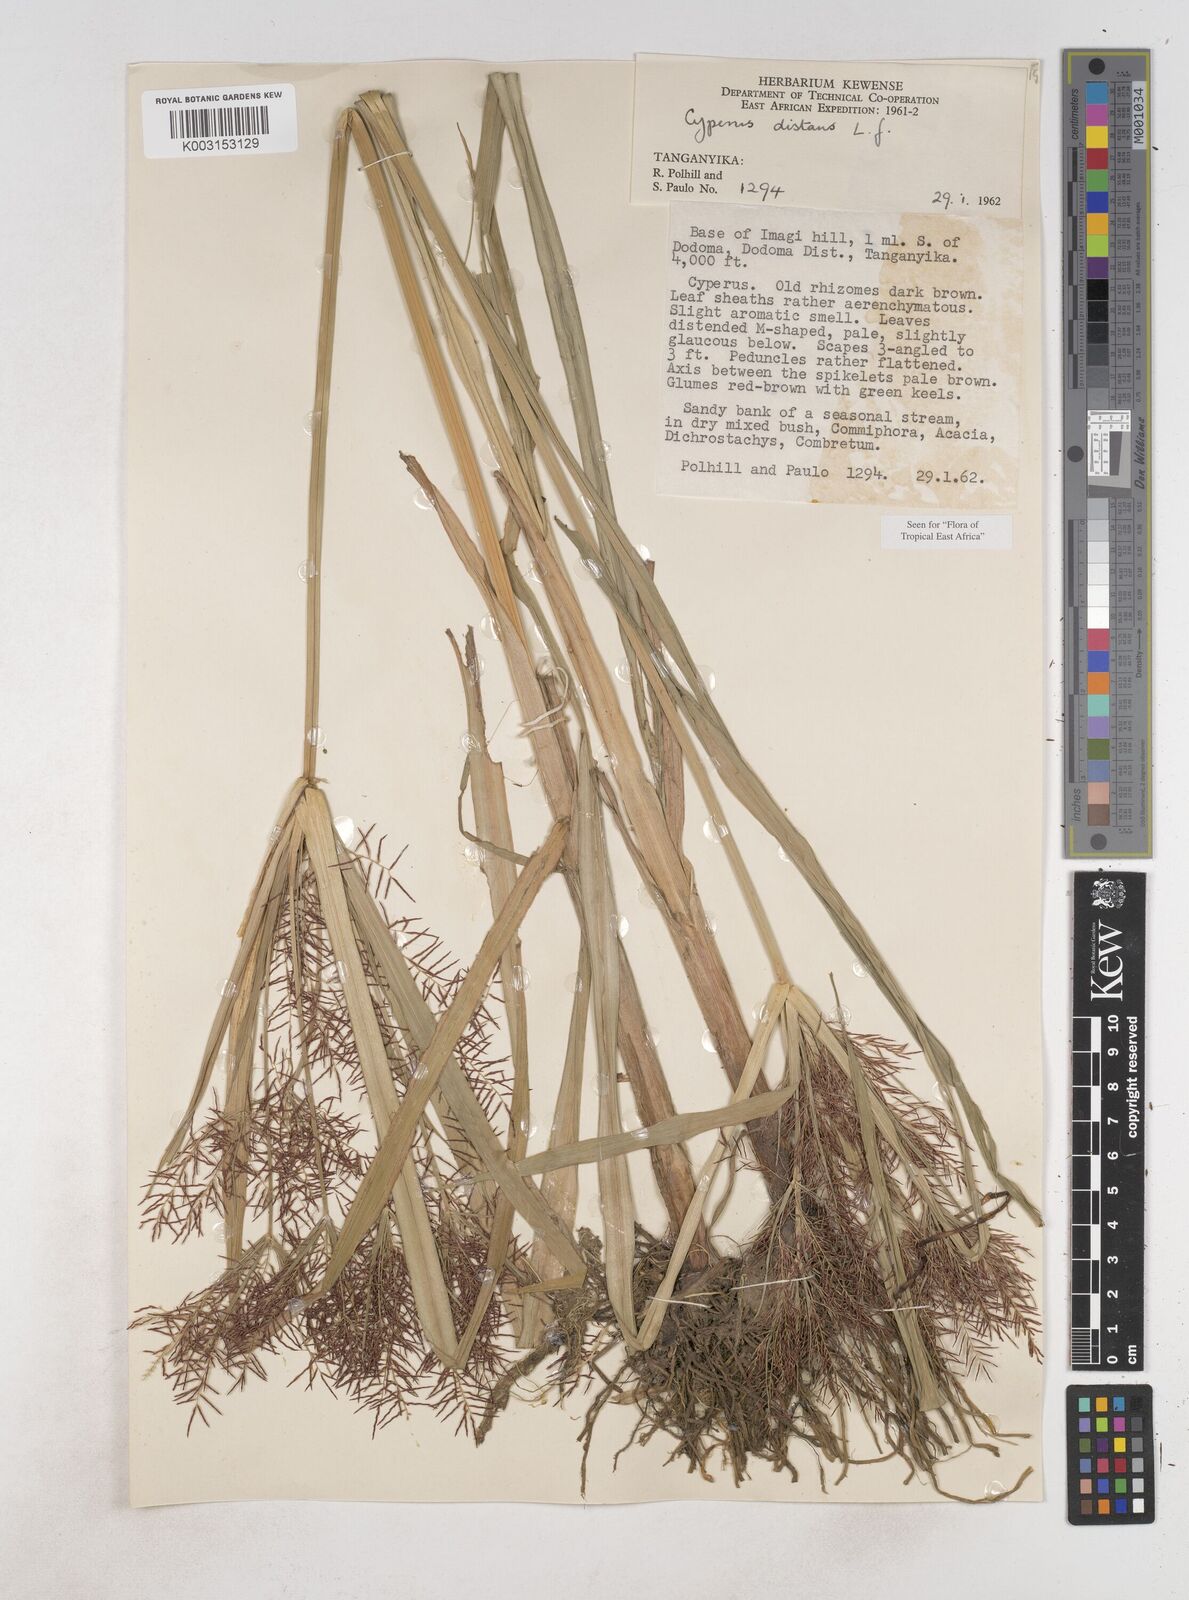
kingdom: Plantae
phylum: Tracheophyta
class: Liliopsida
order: Poales
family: Cyperaceae
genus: Cyperus
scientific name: Cyperus distans
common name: Slender cyperus
